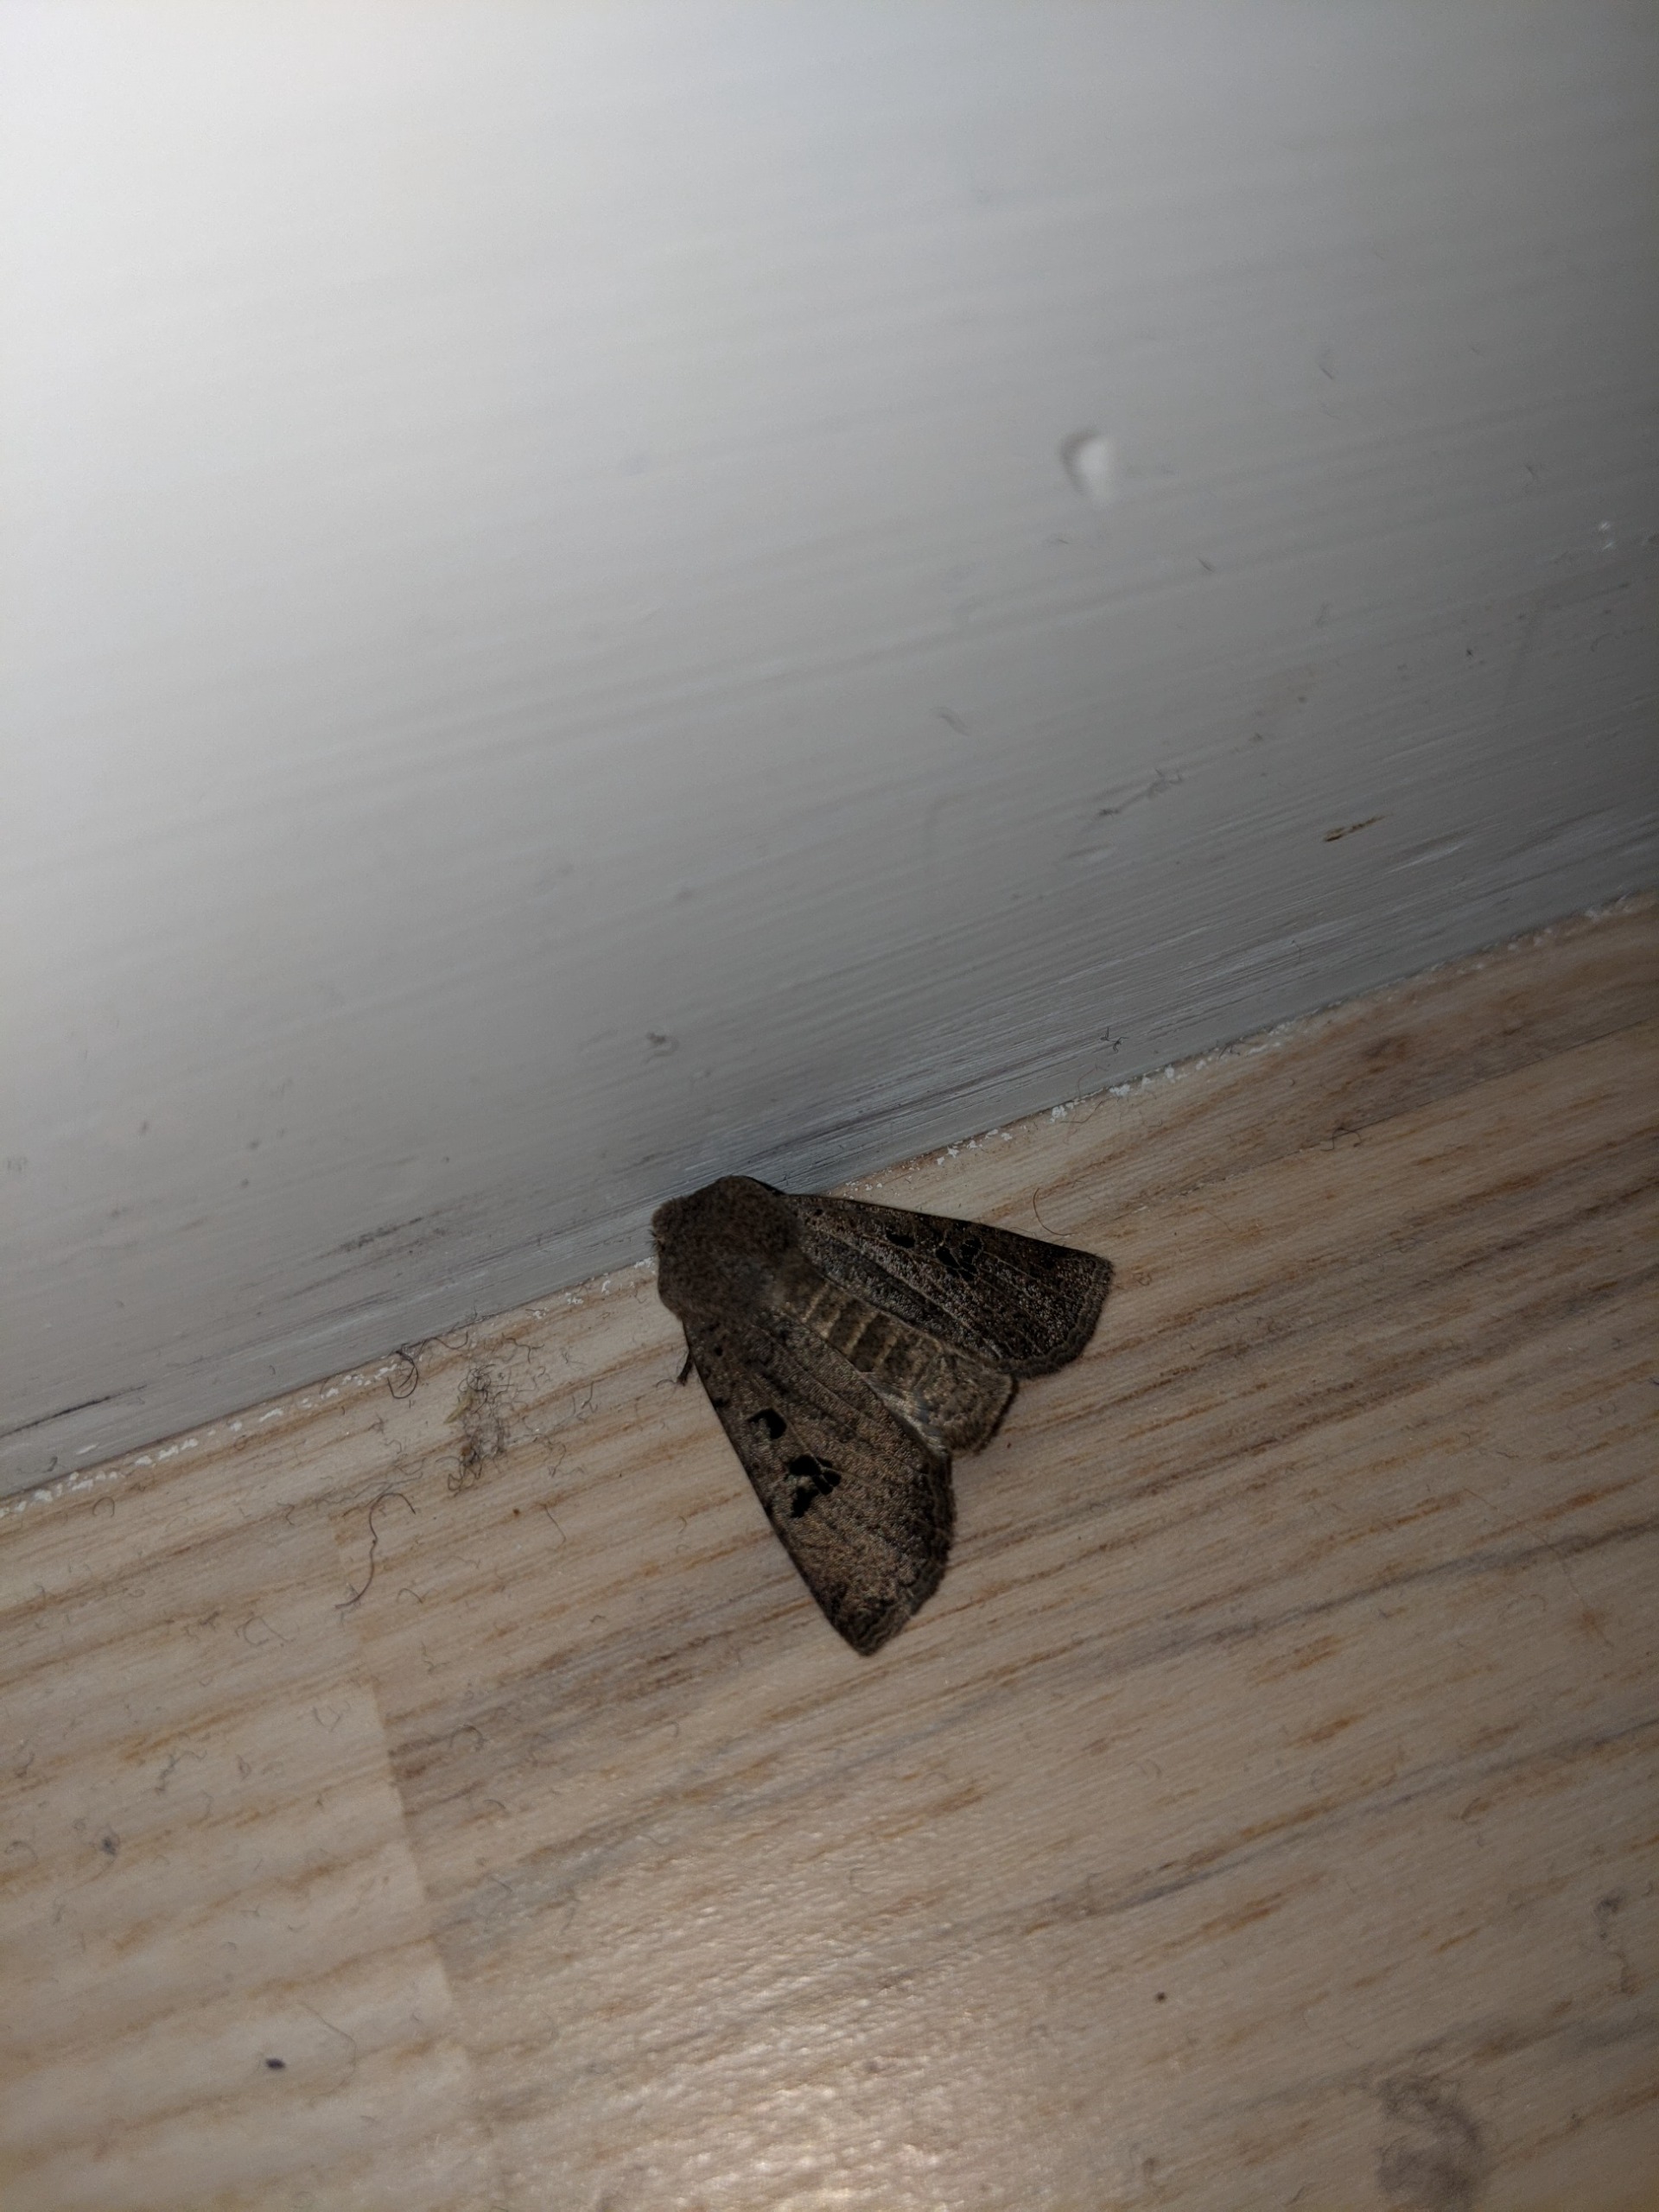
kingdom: Animalia
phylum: Arthropoda
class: Insecta
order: Lepidoptera
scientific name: Lepidoptera
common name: Sommerfugle
